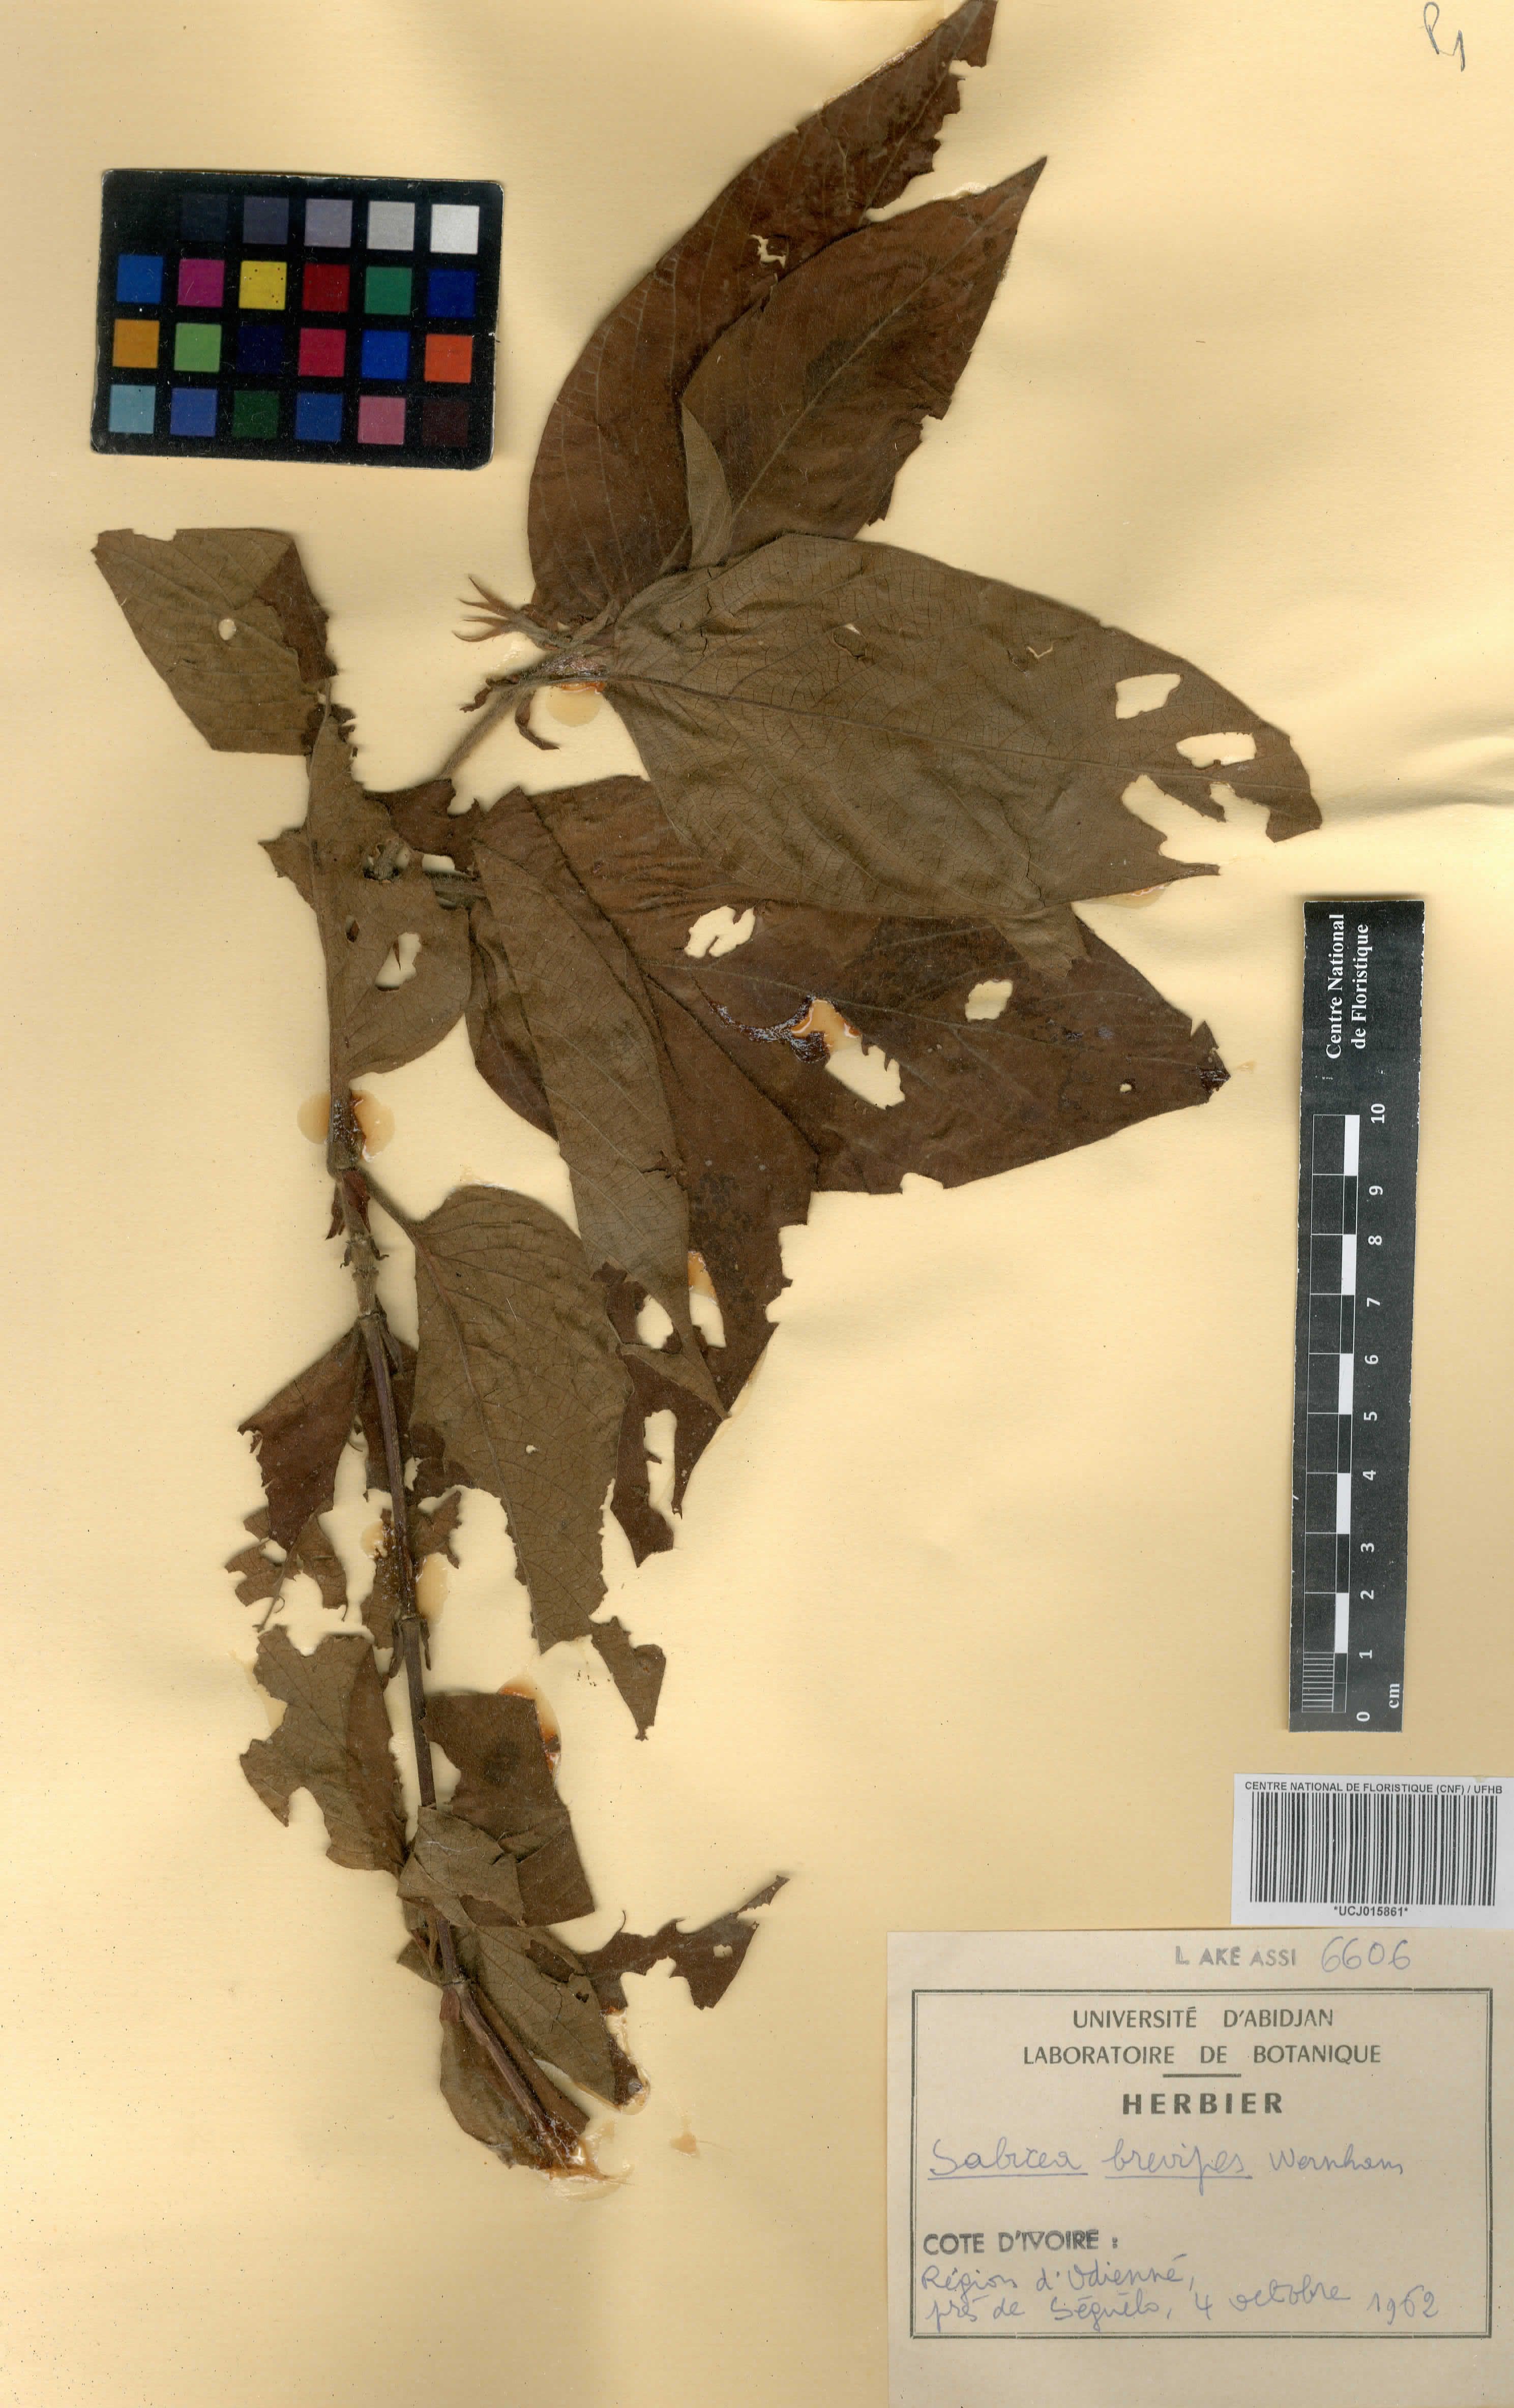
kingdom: Plantae
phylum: Tracheophyta
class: Magnoliopsida
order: Gentianales
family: Rubiaceae
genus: Sabicea
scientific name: Sabicea brevipes
